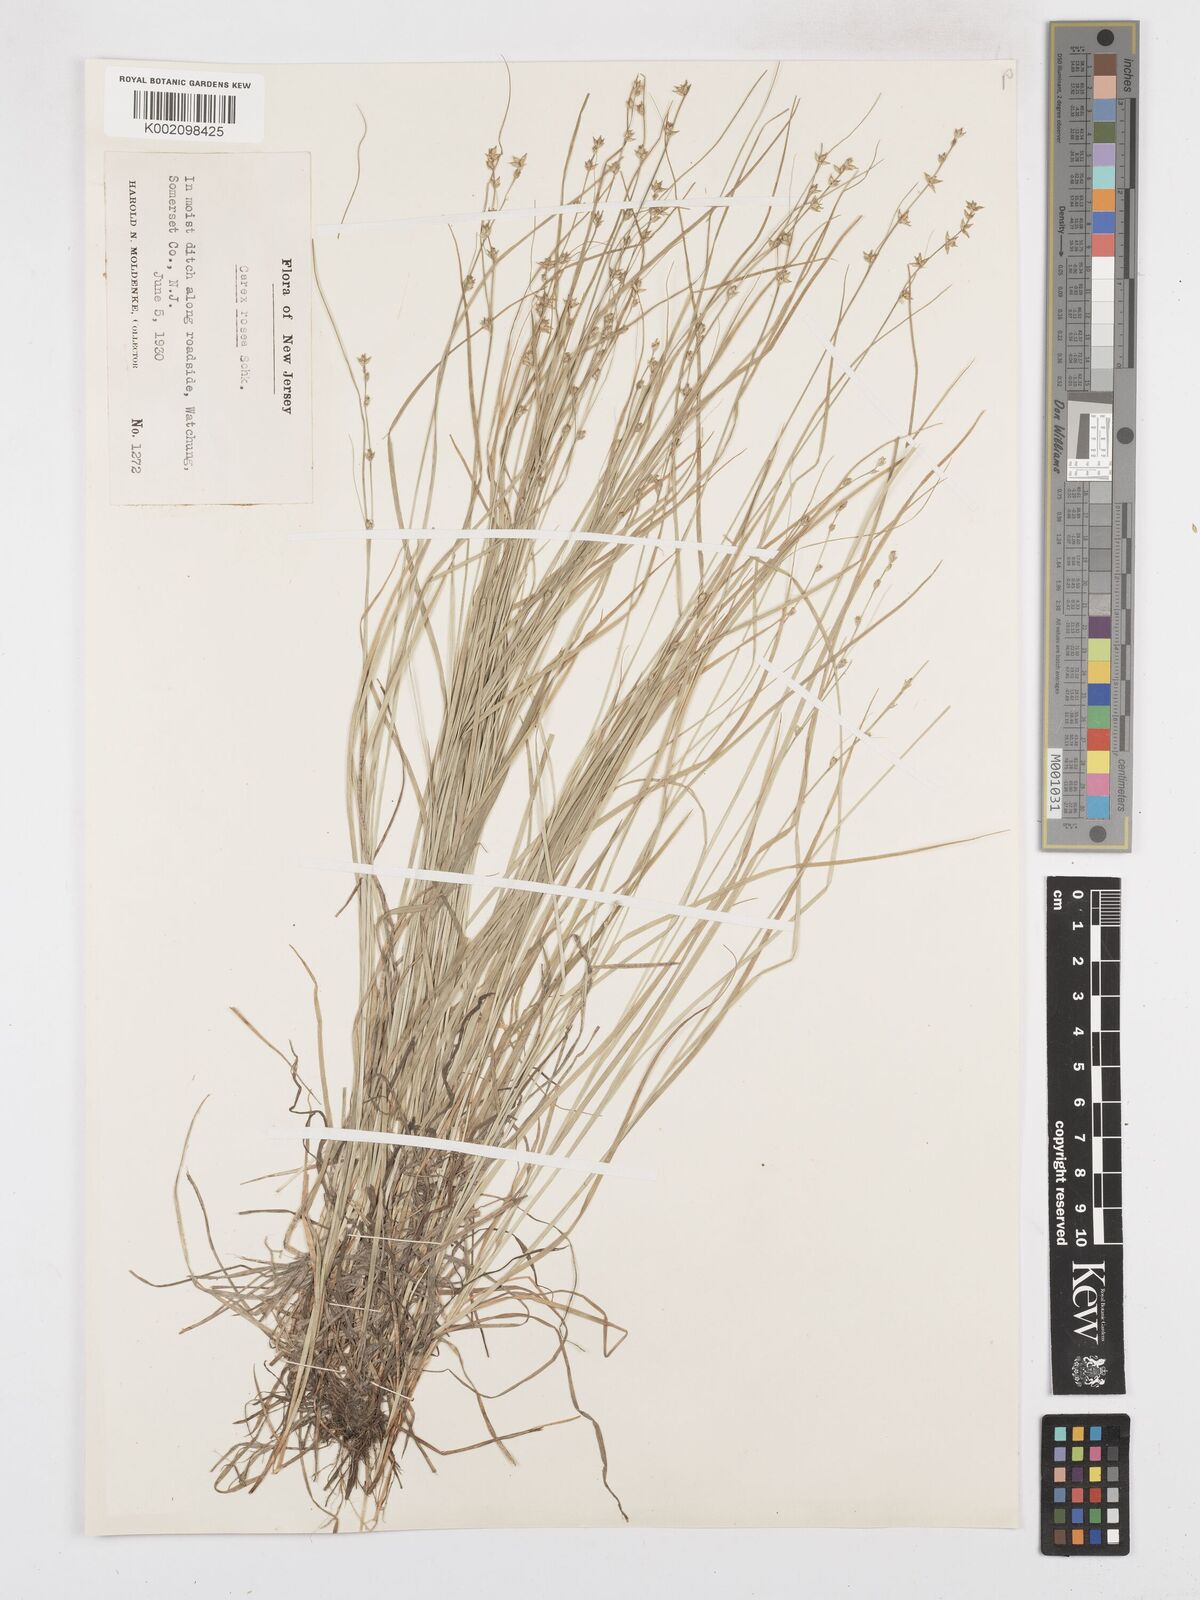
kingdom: Plantae
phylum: Tracheophyta
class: Liliopsida
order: Poales
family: Cyperaceae
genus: Carex
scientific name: Carex
